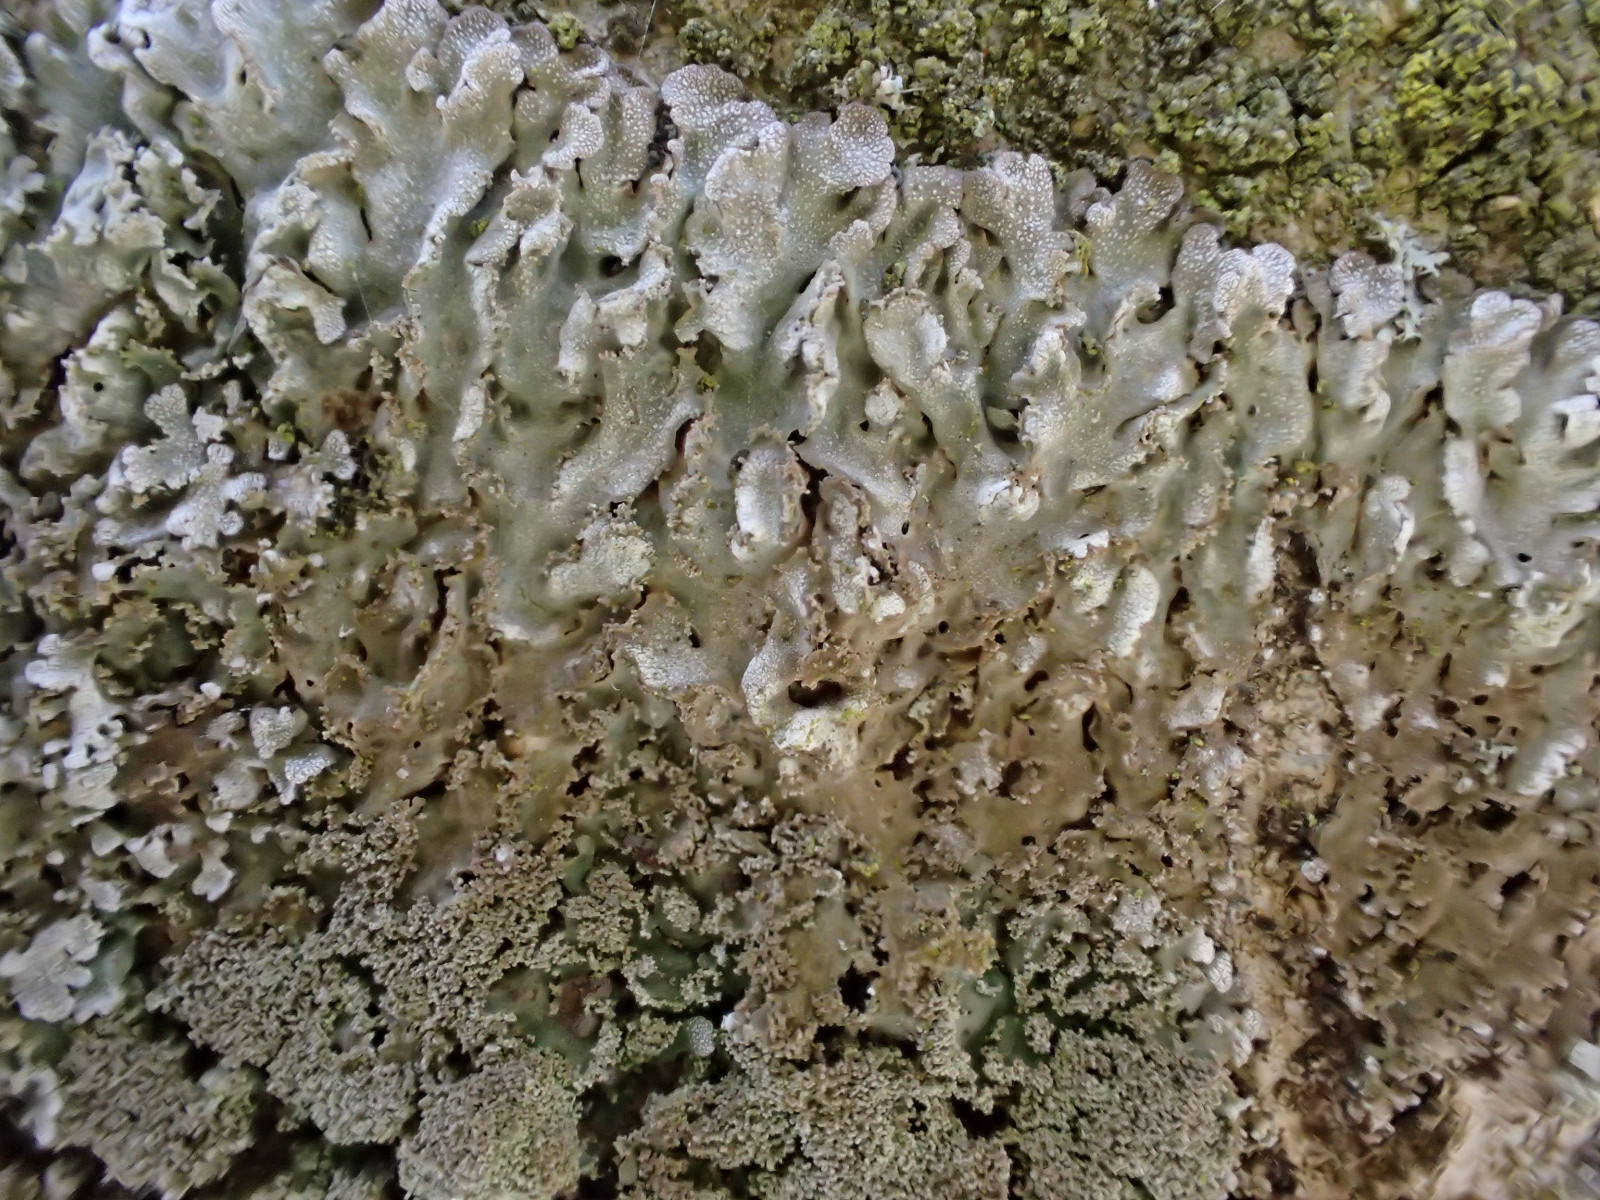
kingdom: Fungi
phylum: Ascomycota
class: Lecanoromycetes
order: Caliciales
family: Physciaceae
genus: Poeltonia
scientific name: Poeltonia grisea
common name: hvidgrå dugrosetlav
